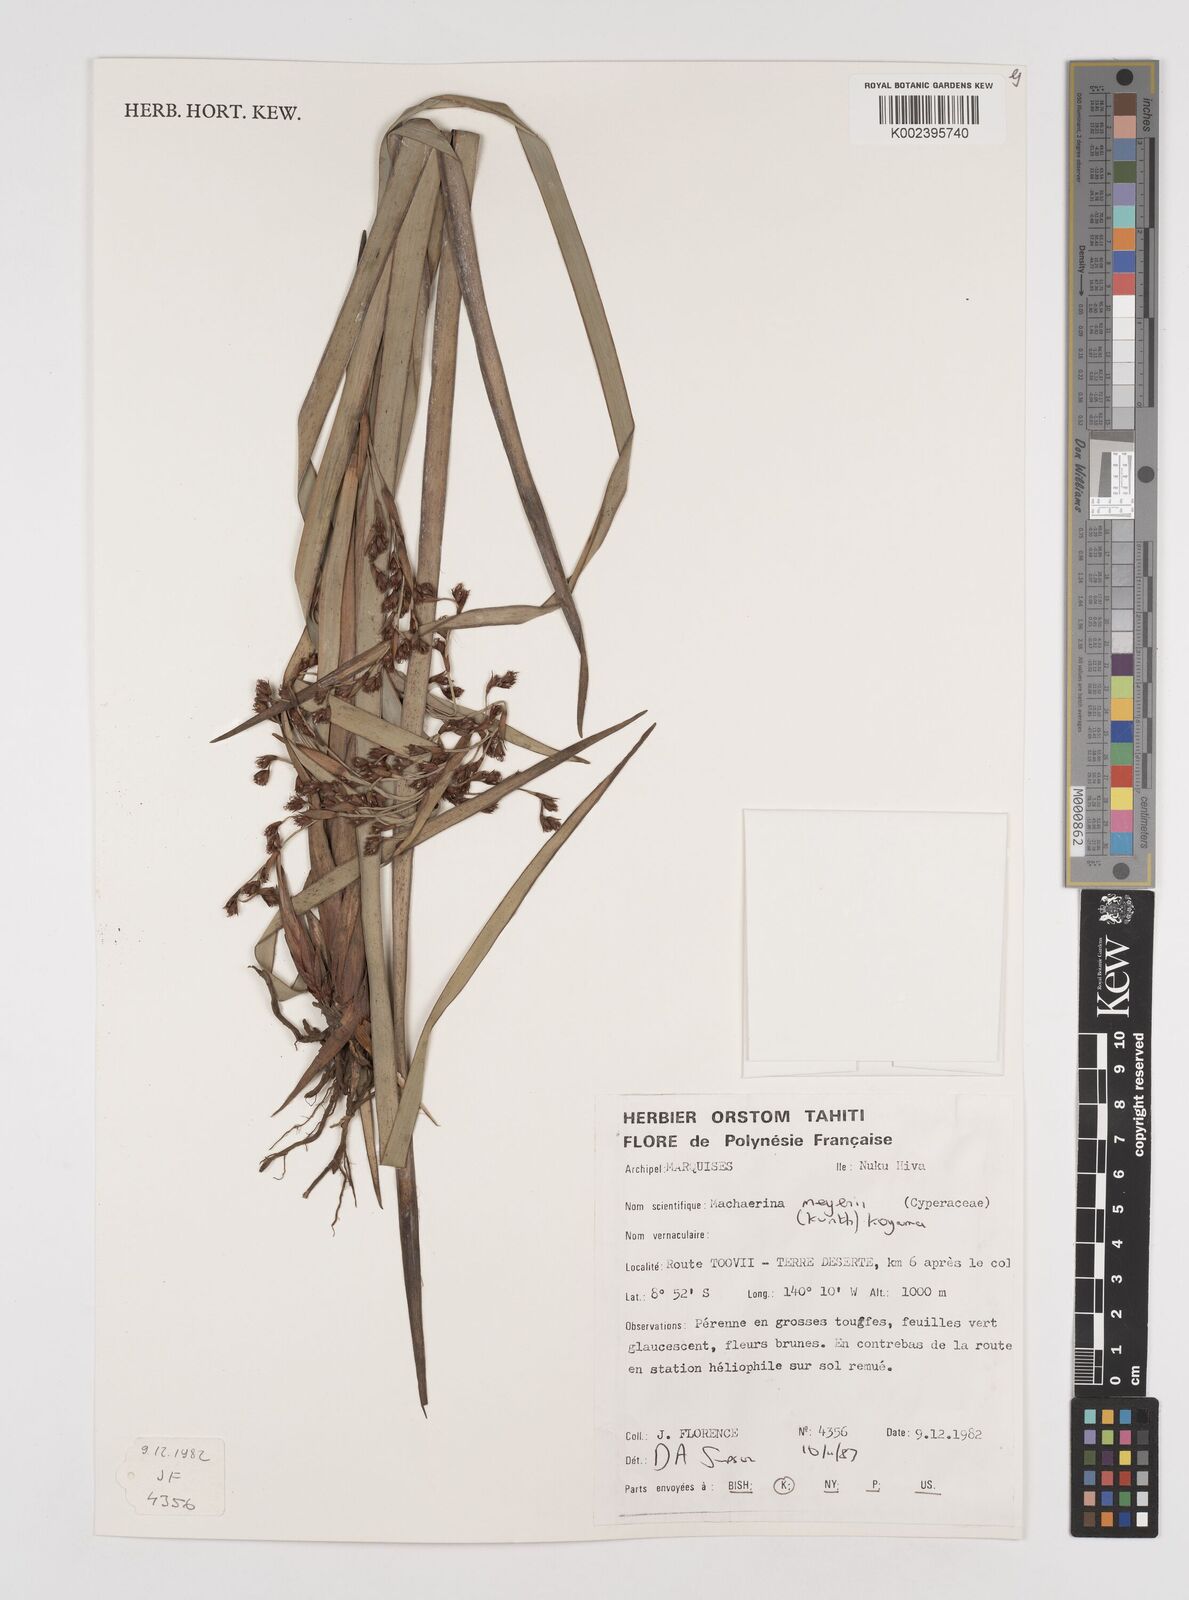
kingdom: Plantae
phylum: Tracheophyta
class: Liliopsida
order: Poales
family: Cyperaceae
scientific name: Cyperaceae
